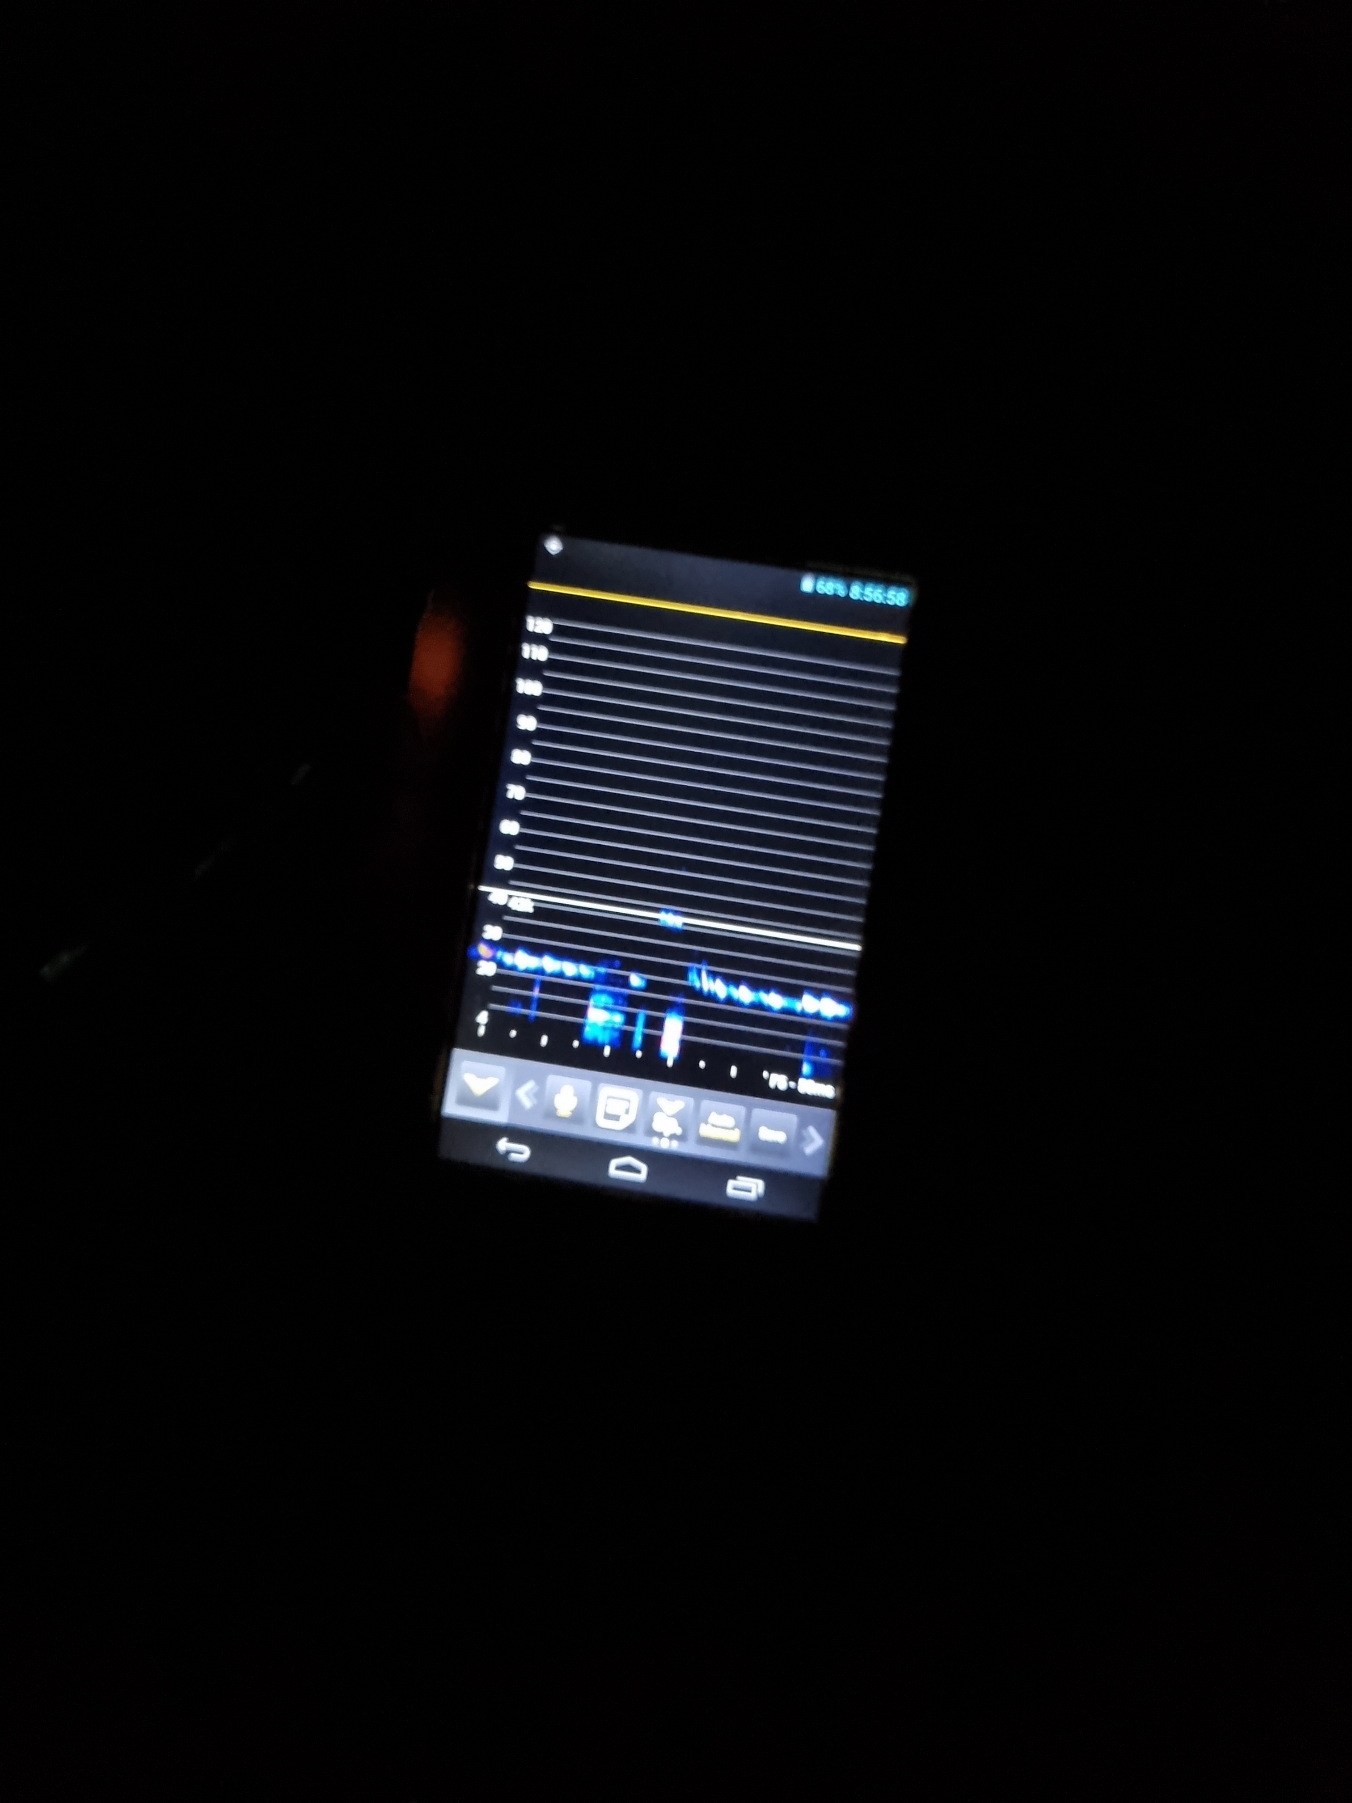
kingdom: Animalia
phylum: Chordata
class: Mammalia
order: Chiroptera
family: Vespertilionidae
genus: Nyctalus
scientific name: Nyctalus noctula
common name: Brunflagermus
